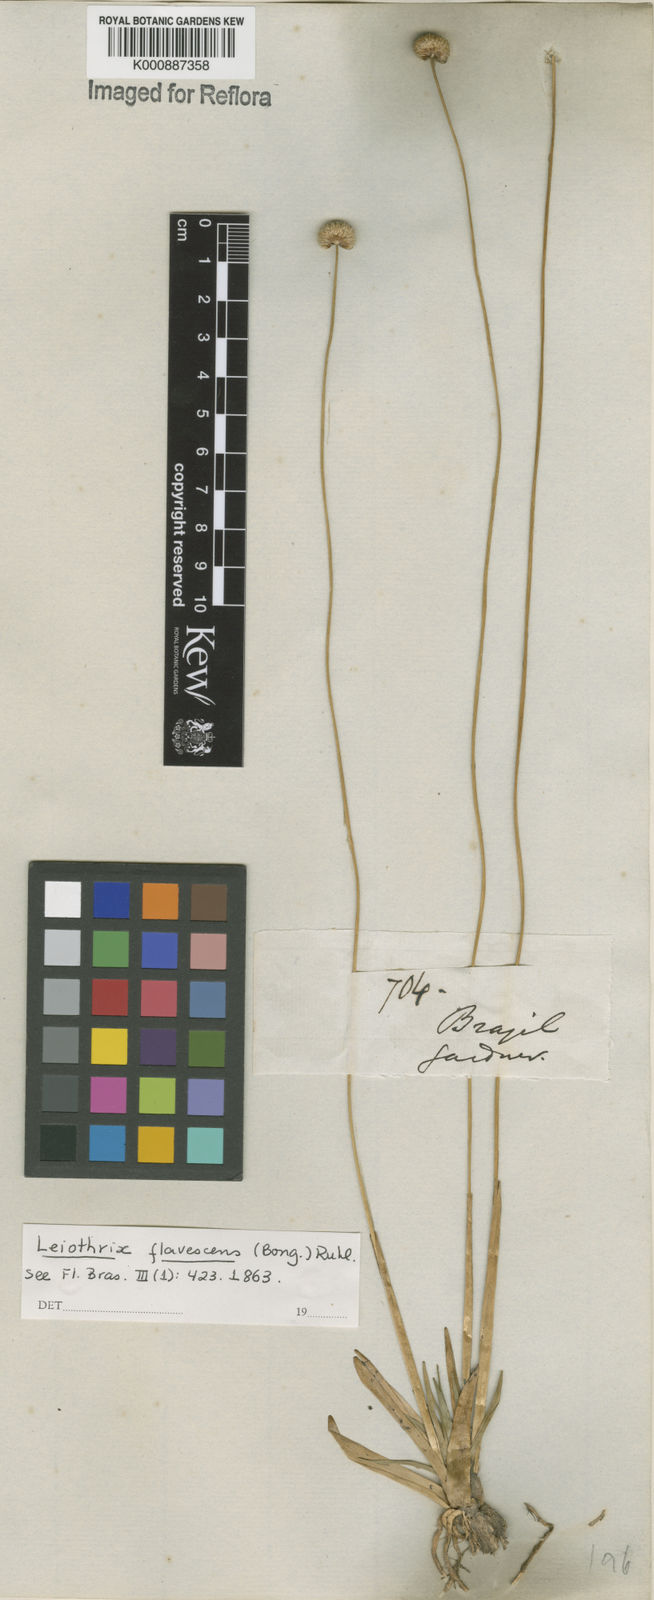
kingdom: Plantae
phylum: Tracheophyta
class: Liliopsida
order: Poales
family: Eriocaulaceae
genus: Leiothrix
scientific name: Leiothrix flavescens
